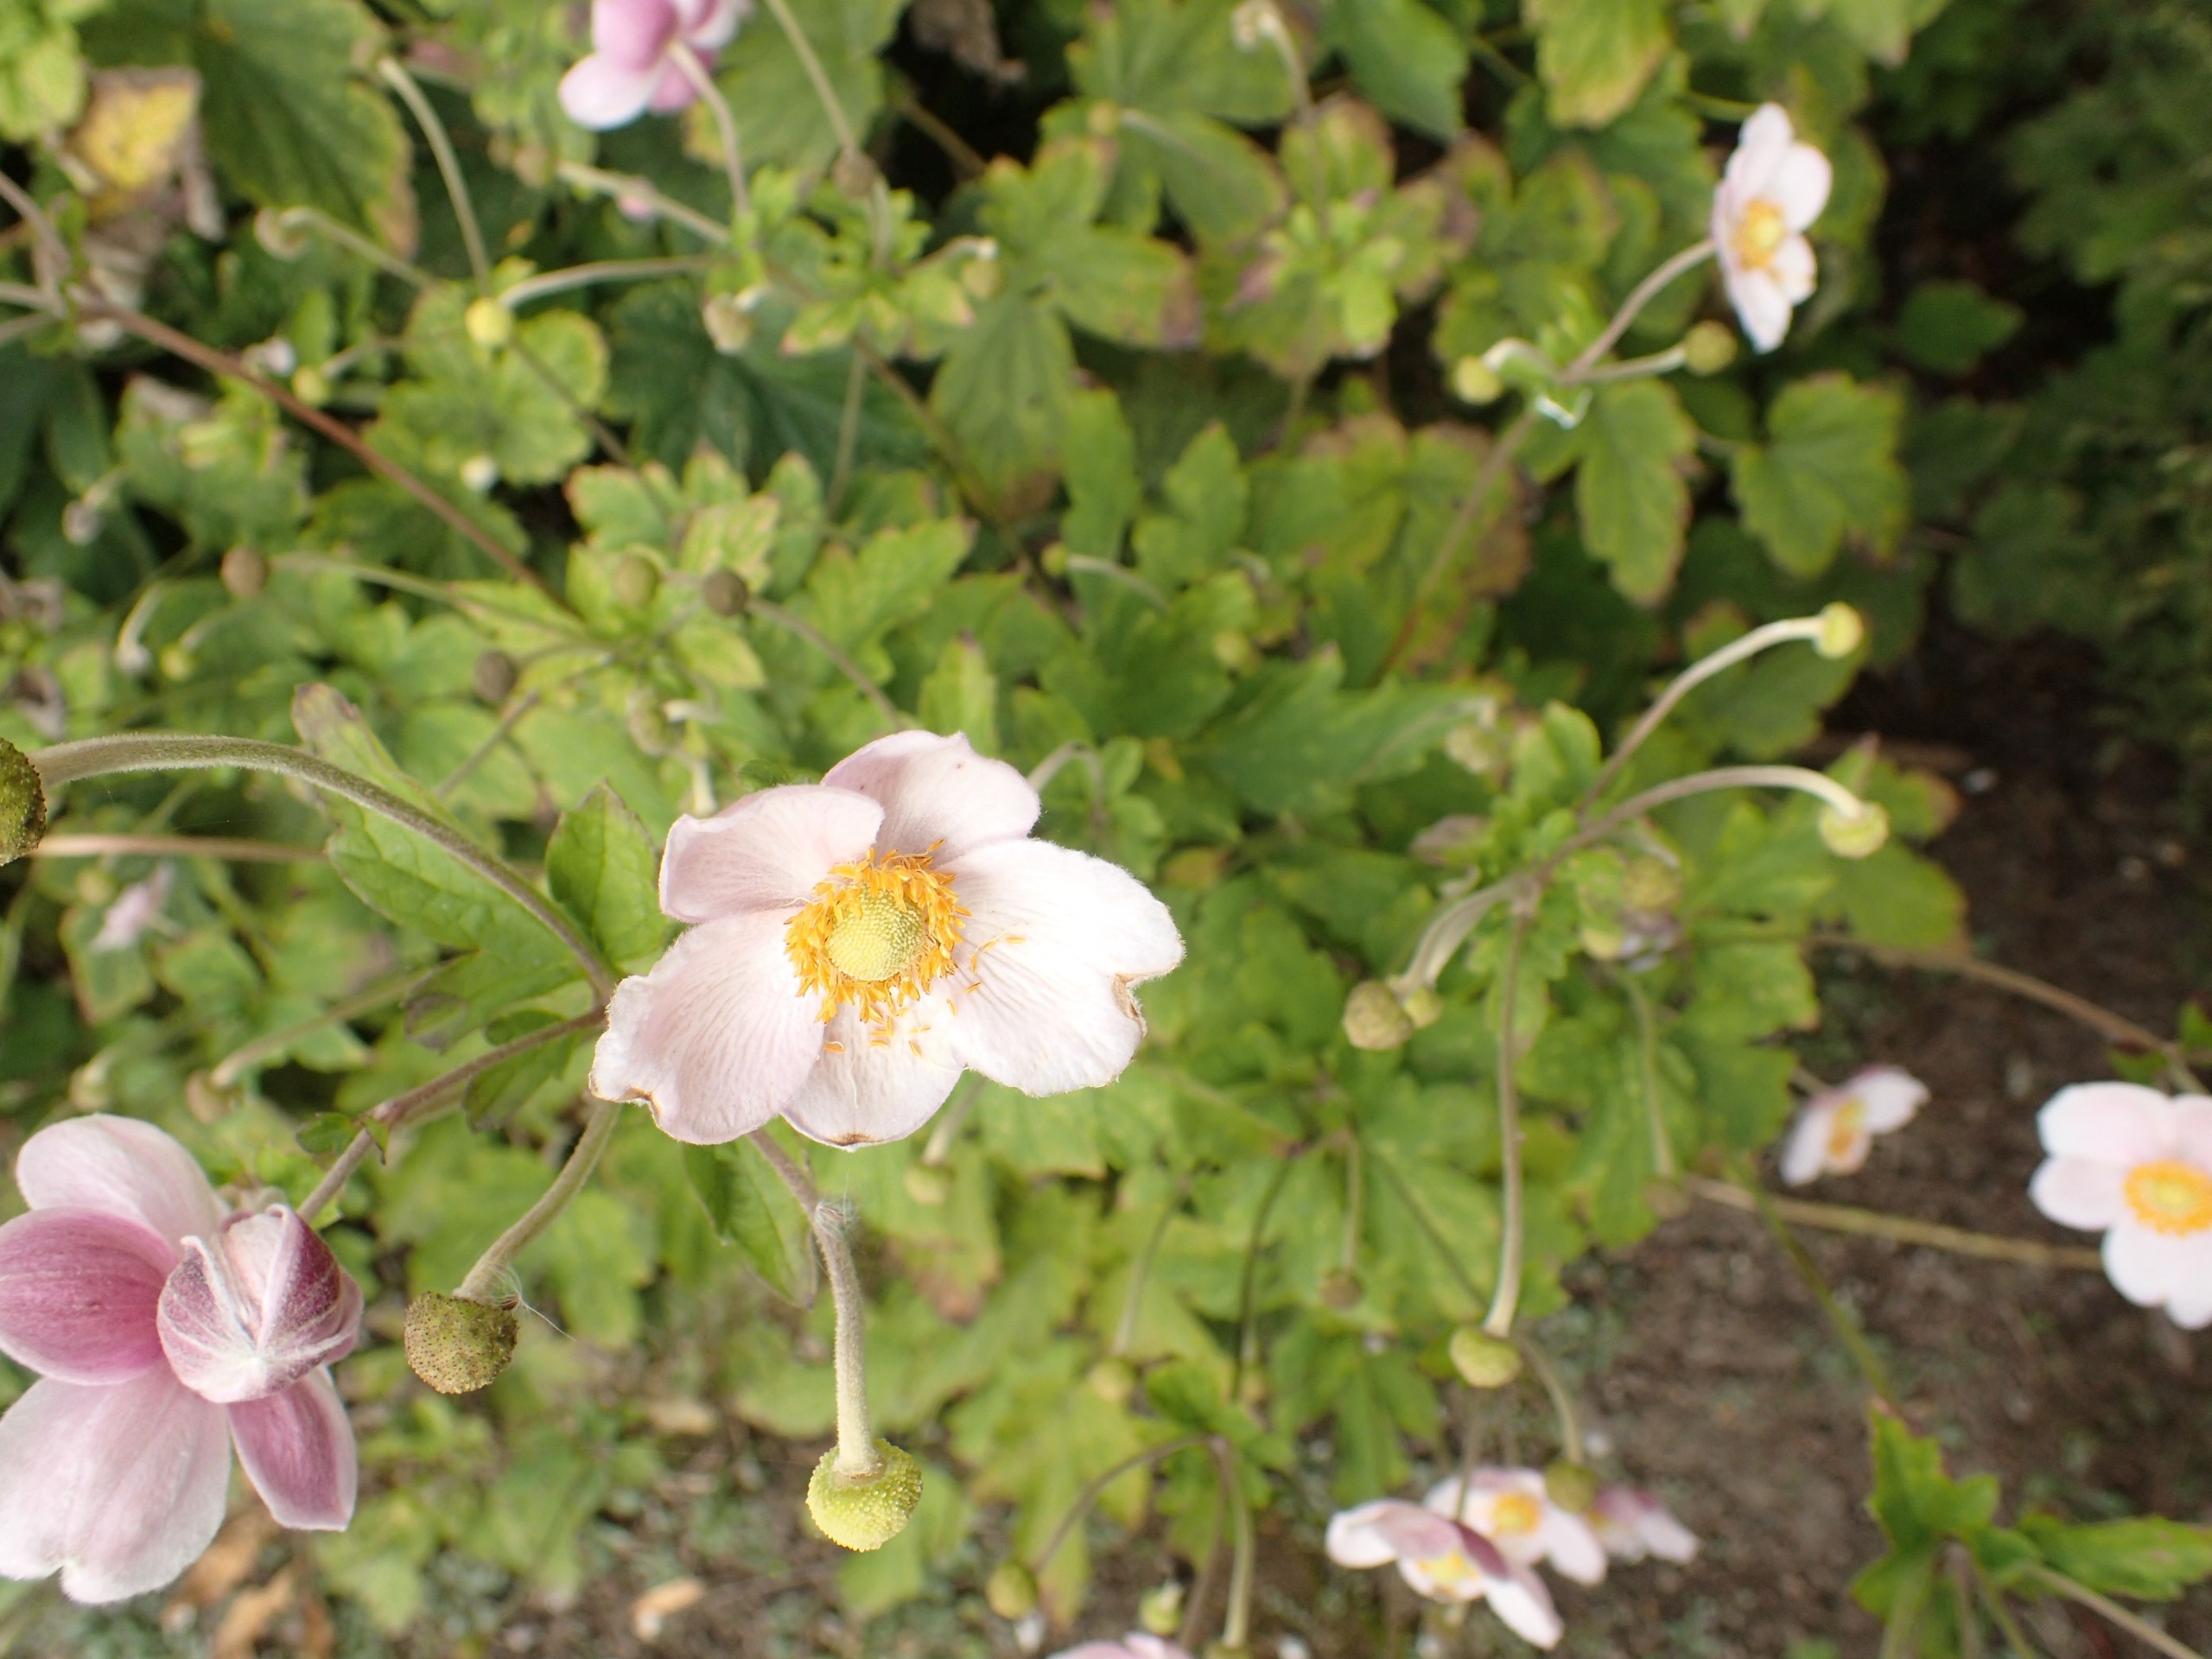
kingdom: Plantae
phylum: Tracheophyta
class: Magnoliopsida
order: Ranunculales
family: Ranunculaceae
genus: Eriocapitella
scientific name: Eriocapitella hupehensis
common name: Høst-anemone
